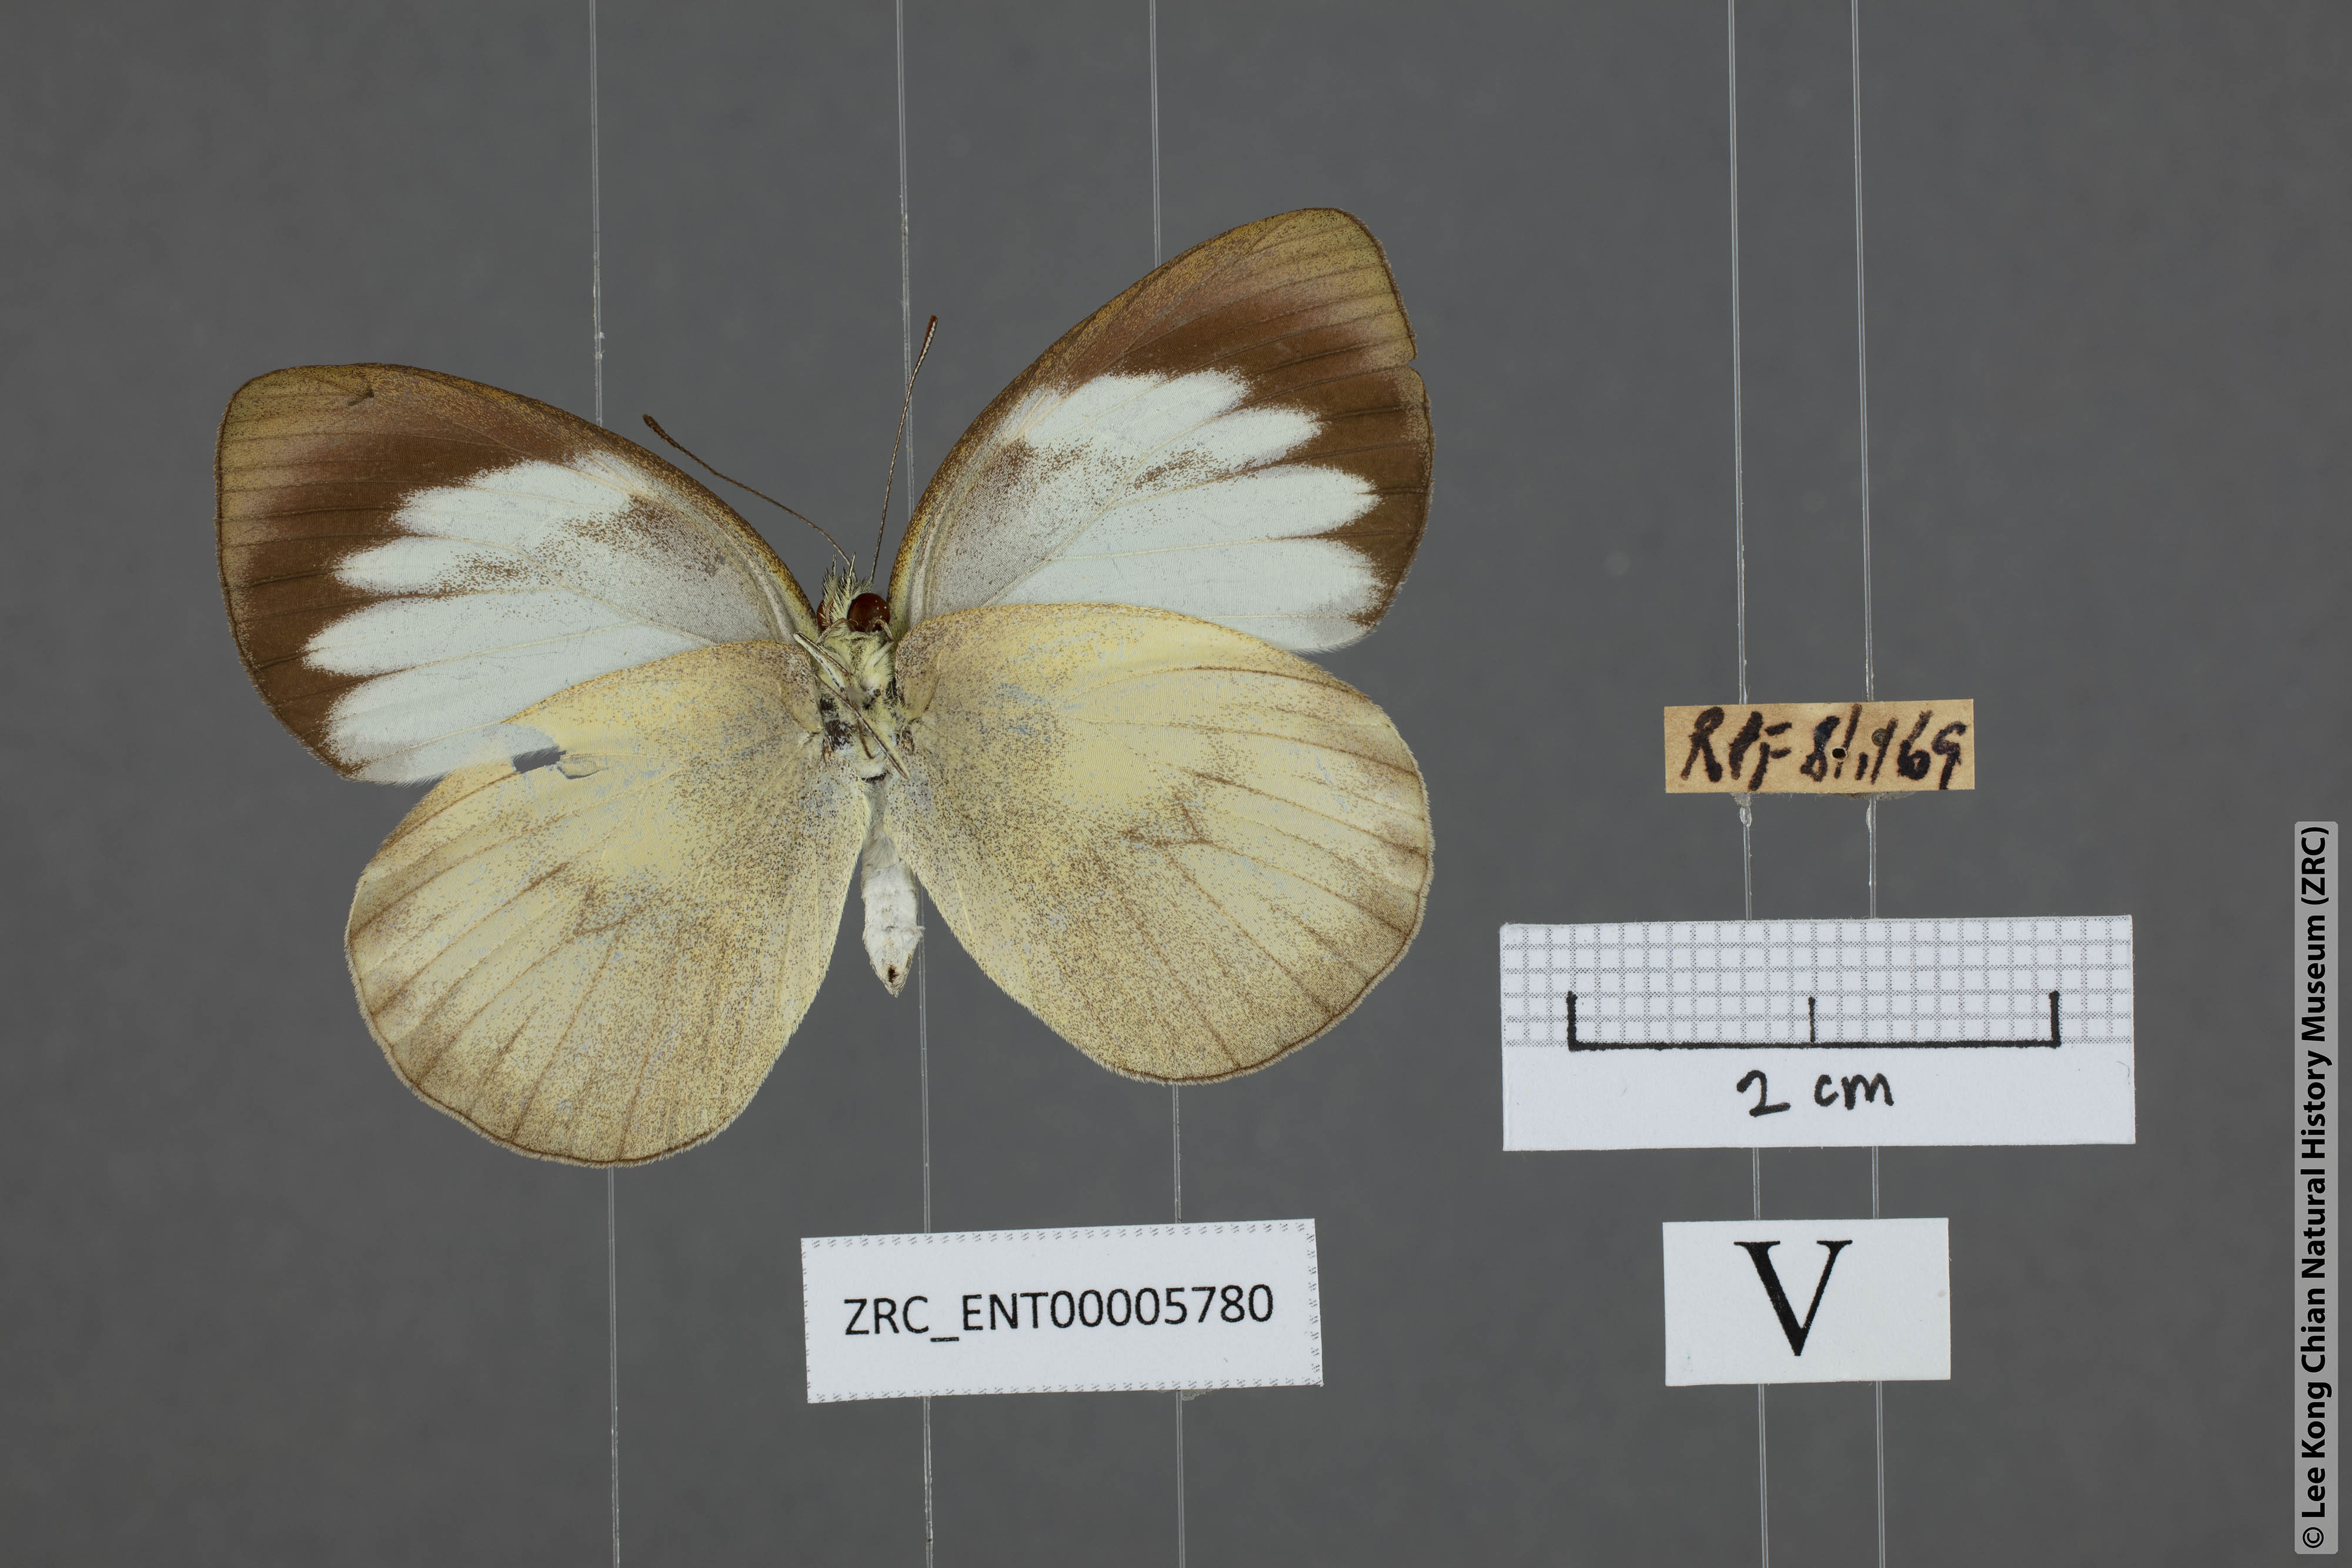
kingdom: Animalia
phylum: Arthropoda
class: Insecta
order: Lepidoptera
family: Pieridae
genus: Phrissura
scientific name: Phrissura aegis
